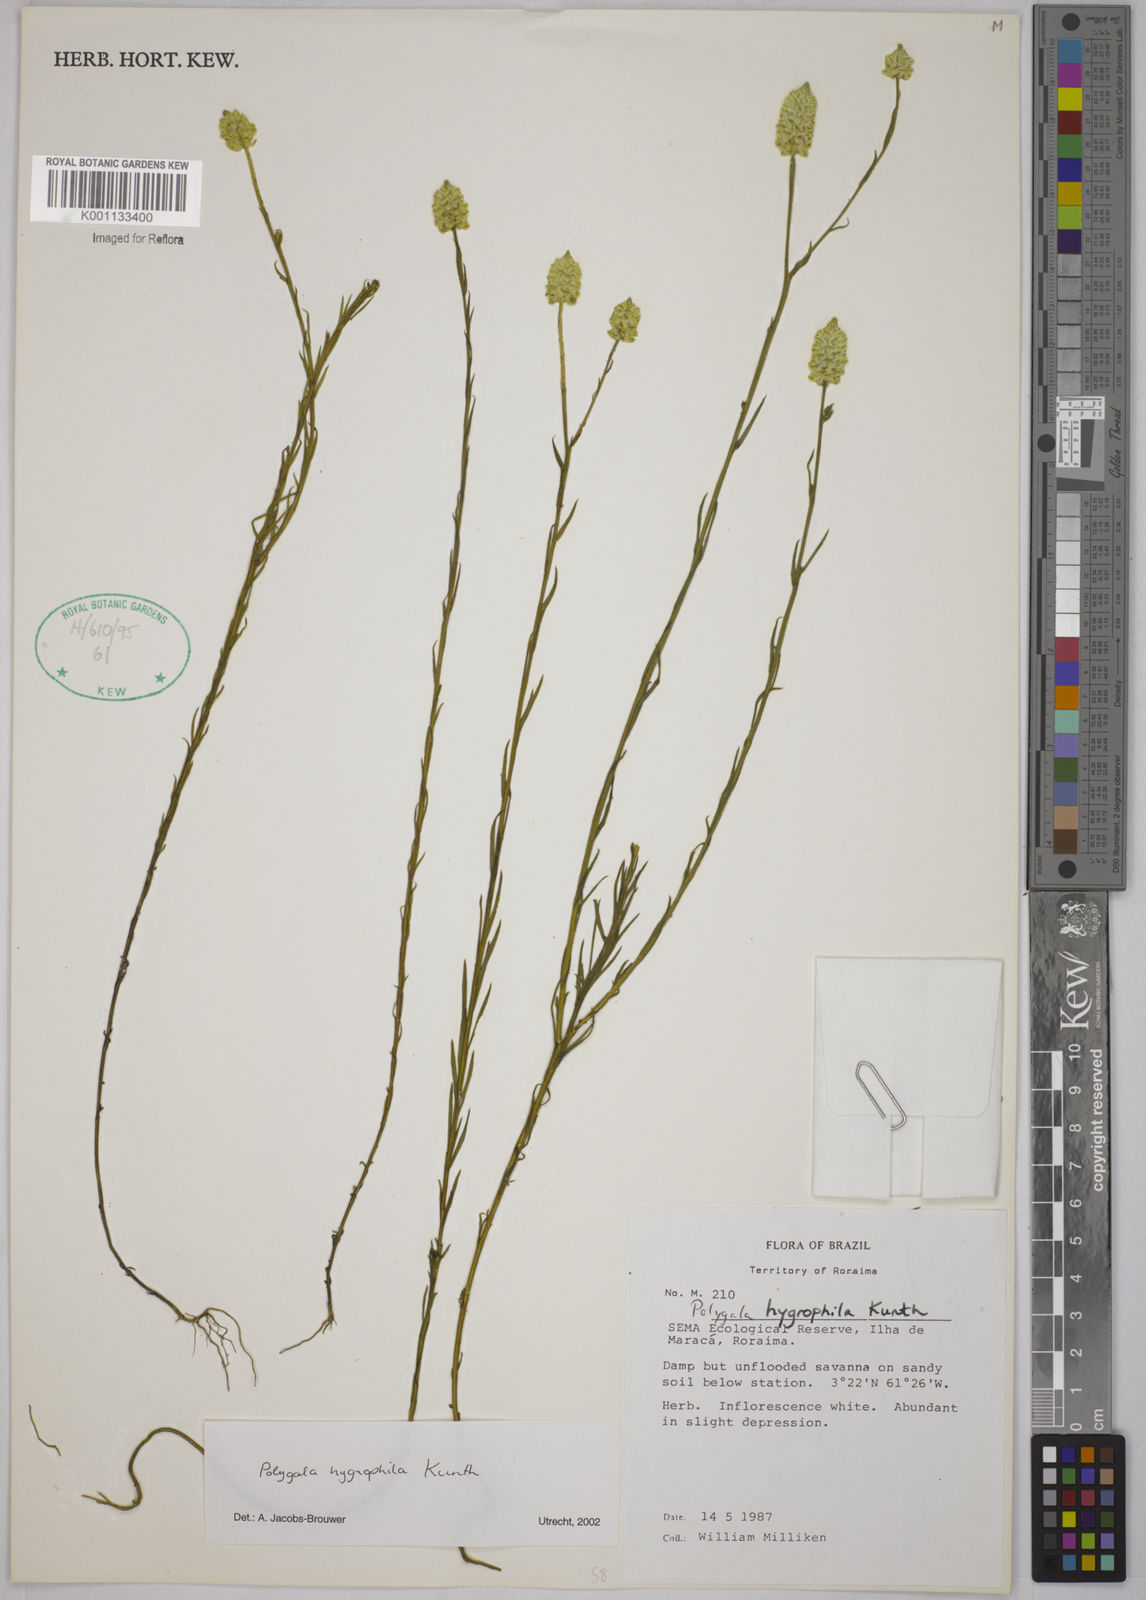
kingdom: Plantae
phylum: Tracheophyta
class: Magnoliopsida
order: Fabales
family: Polygalaceae
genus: Polygala
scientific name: Polygala hygrophila
